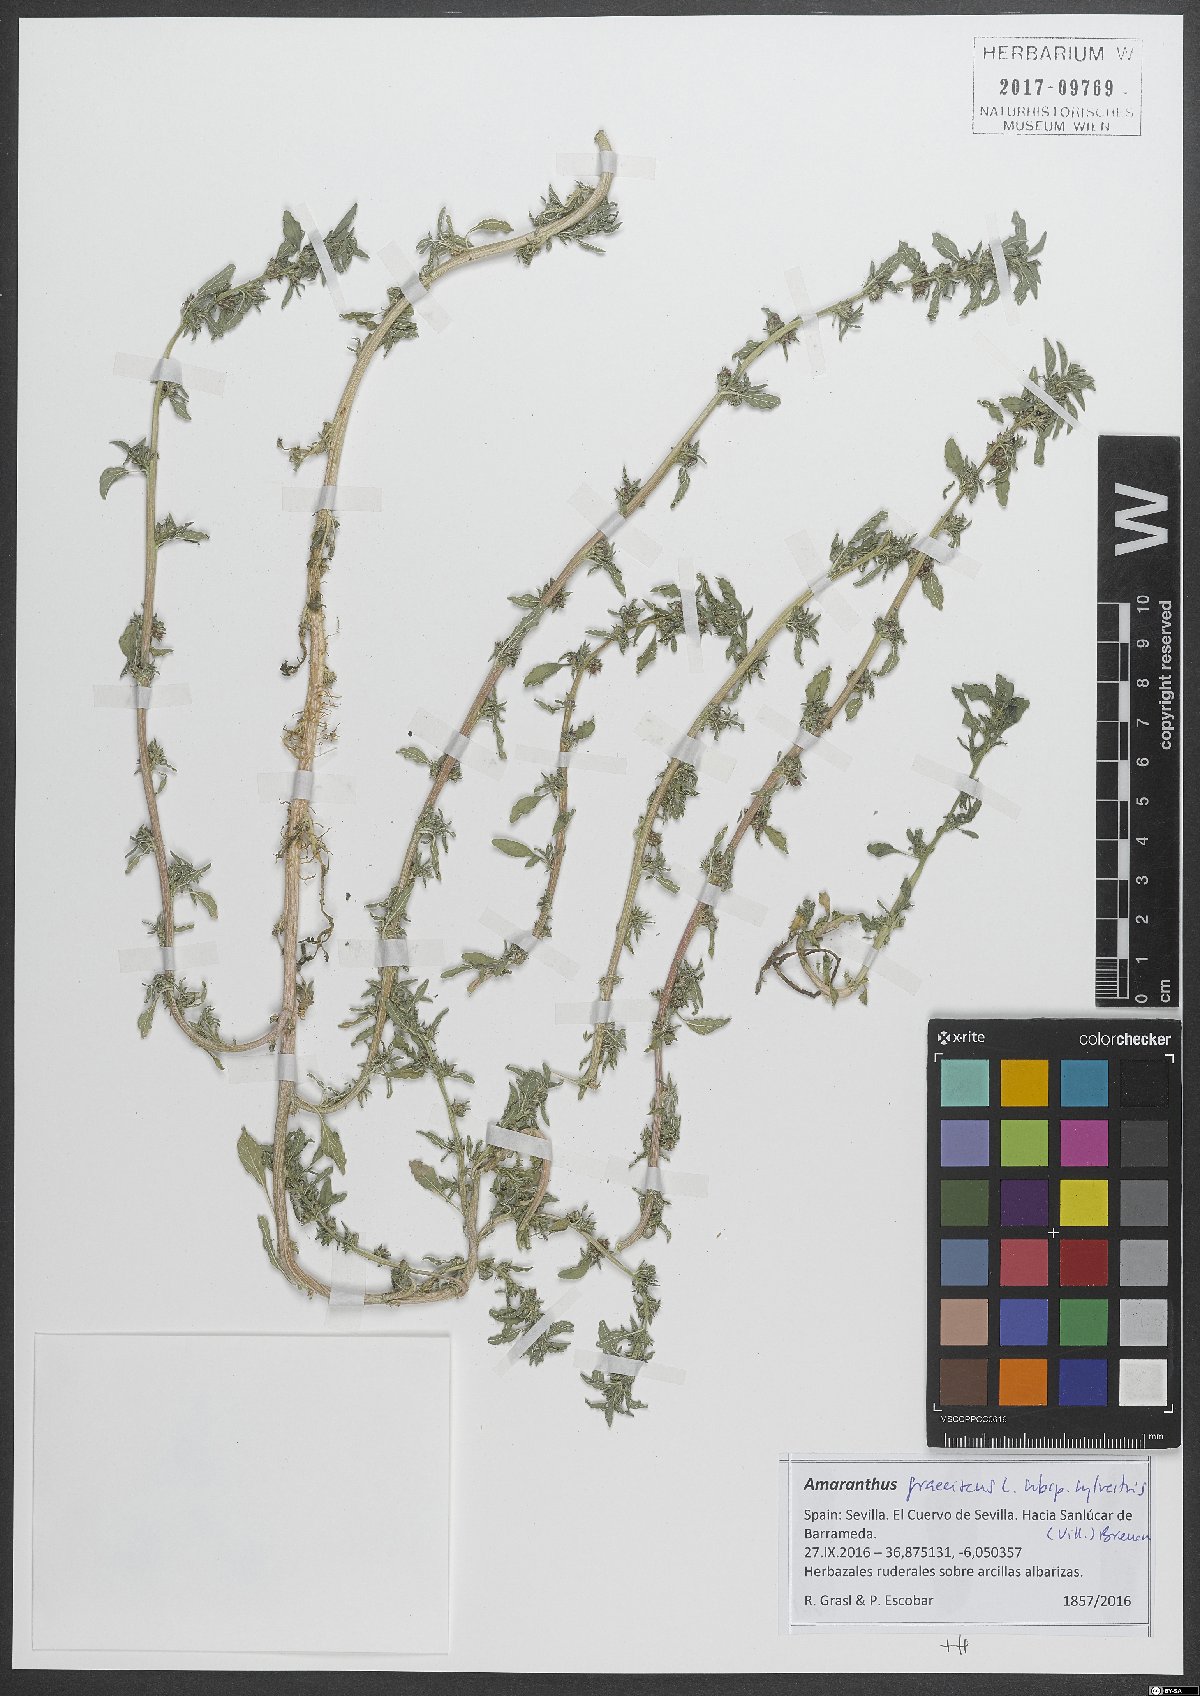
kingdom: Plantae
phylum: Tracheophyta
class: Magnoliopsida
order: Caryophyllales
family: Amaranthaceae
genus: Amaranthus
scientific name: Amaranthus graecizans
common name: Mediterranean amaranth
